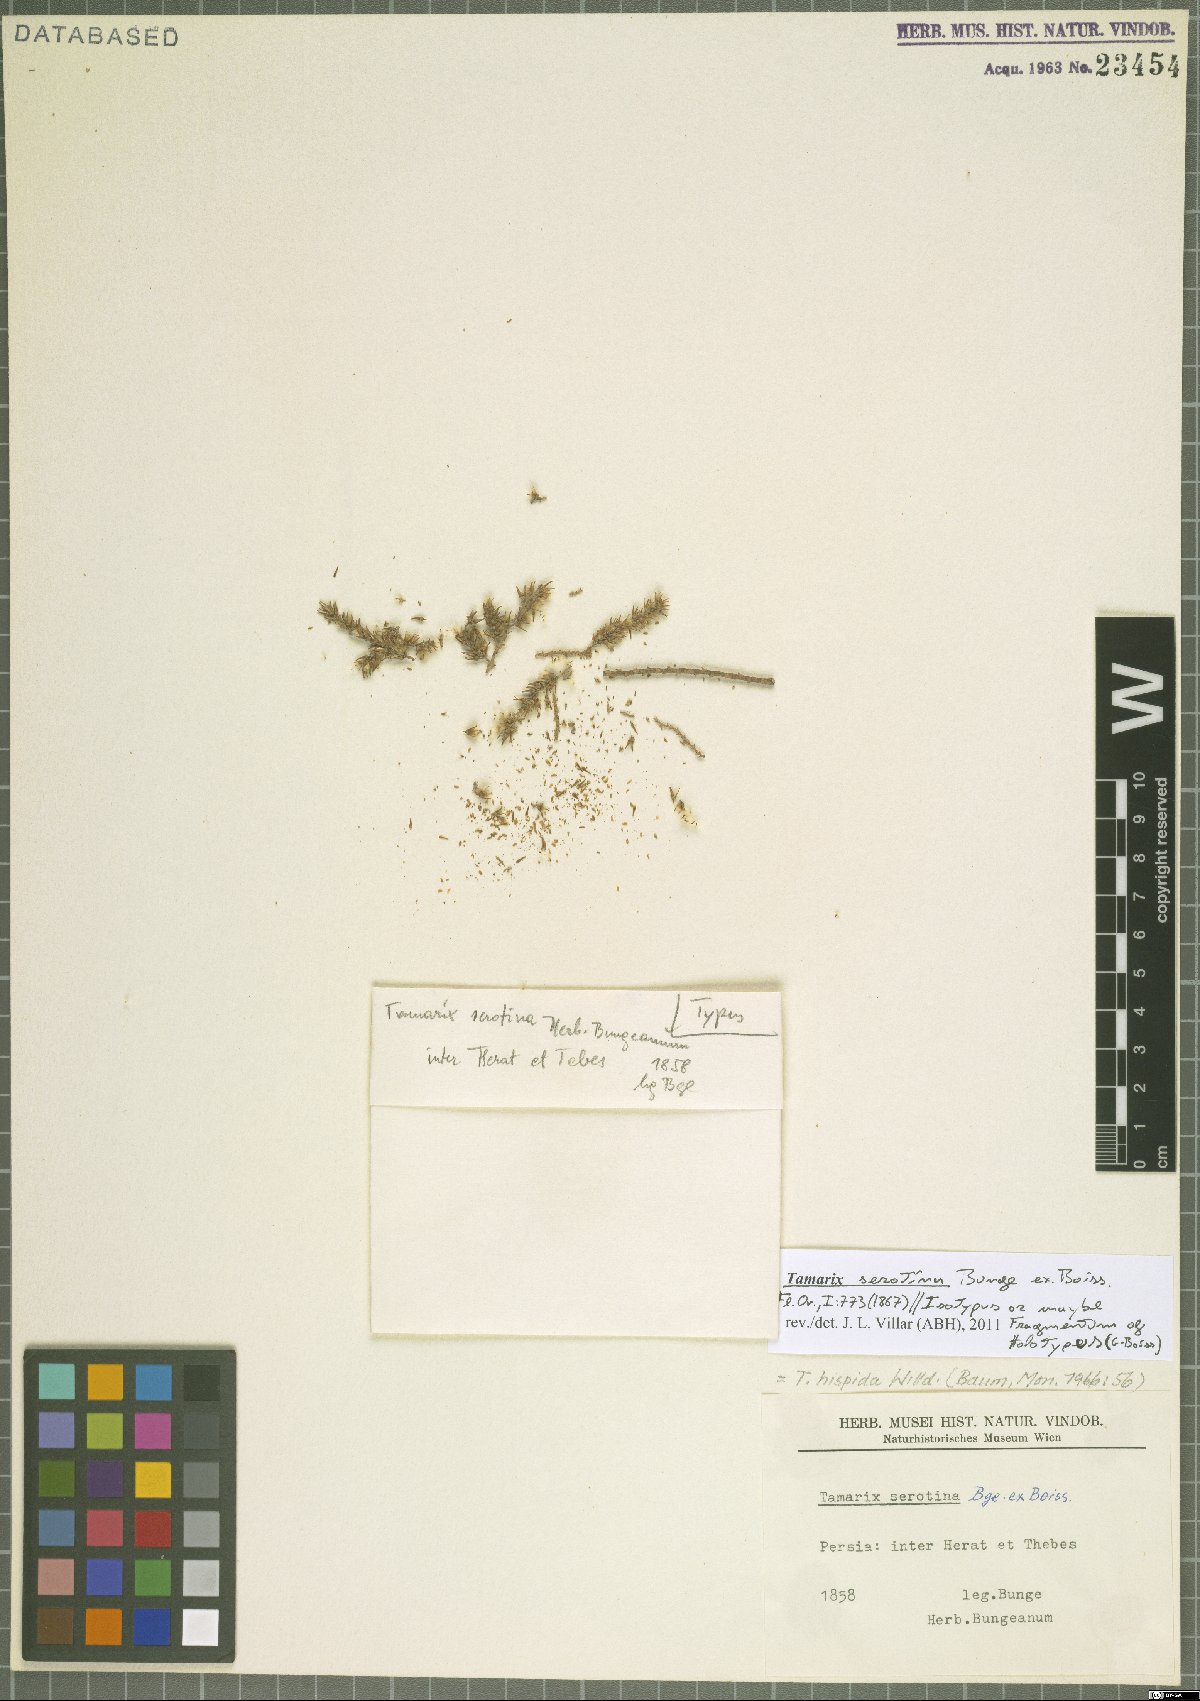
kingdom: Plantae
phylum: Tracheophyta
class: Magnoliopsida
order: Caryophyllales
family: Tamaricaceae
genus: Tamarix
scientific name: Tamarix hispida
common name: Kashgar tamarisk
